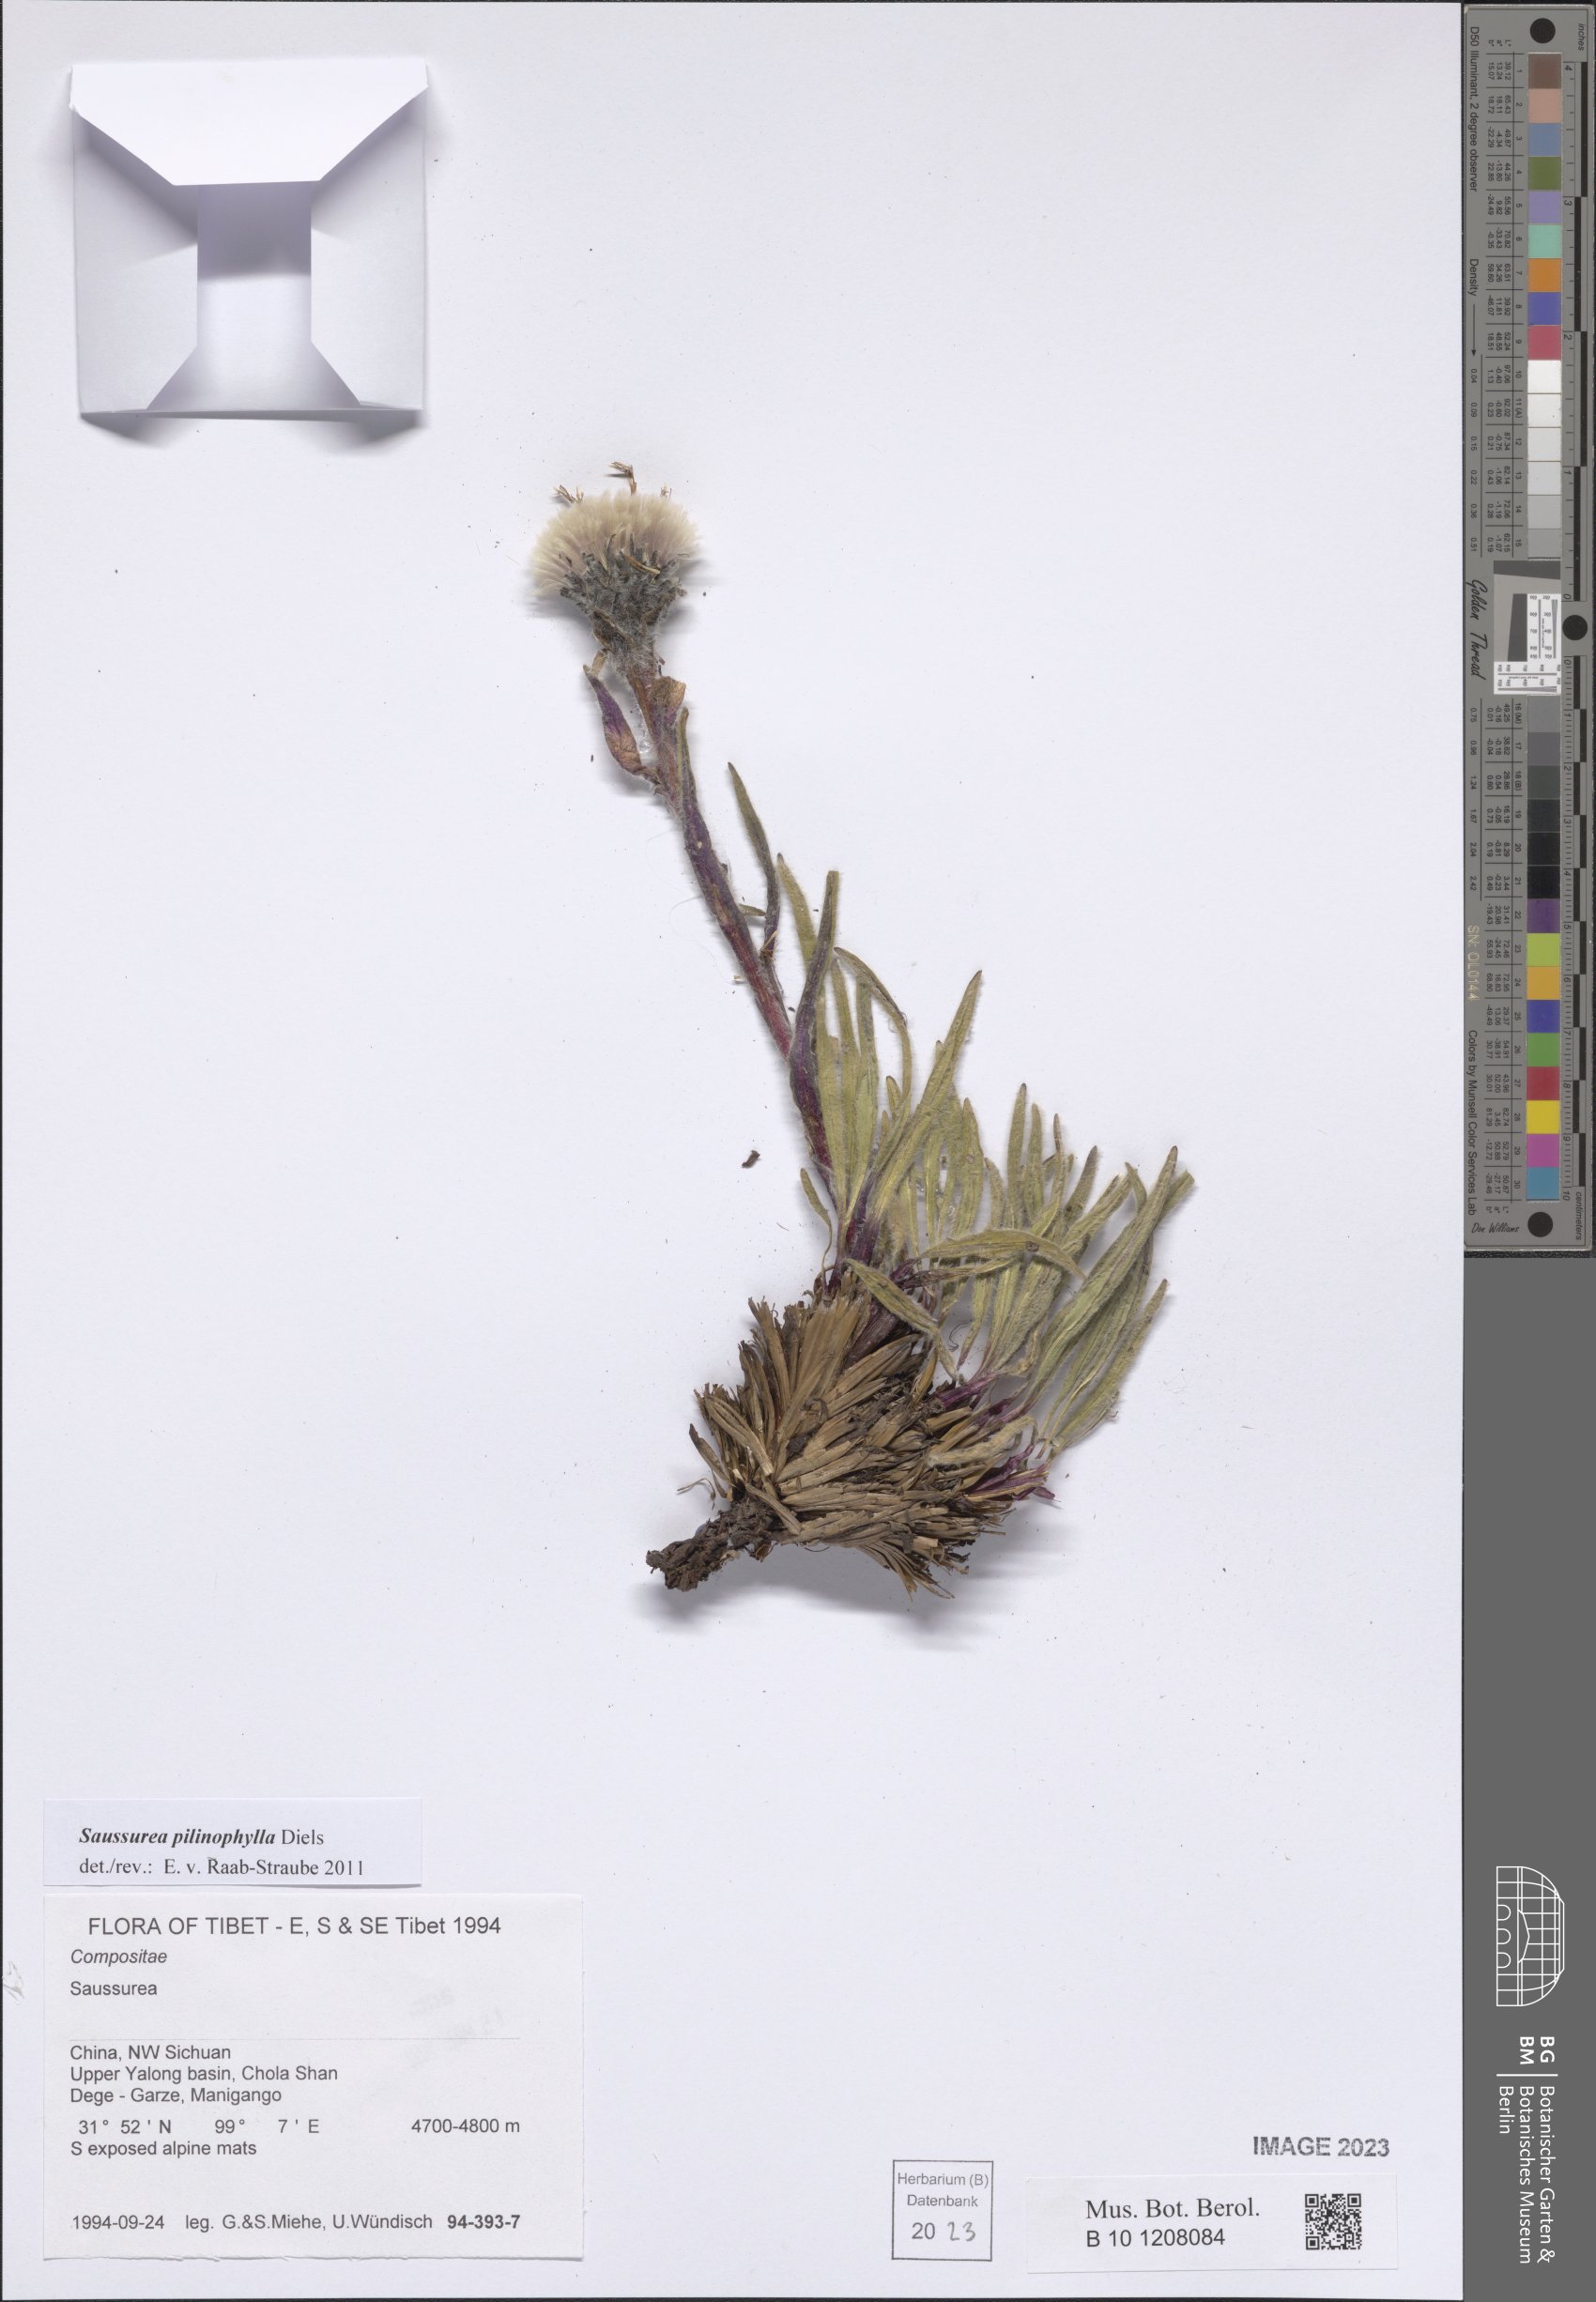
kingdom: Plantae
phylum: Tracheophyta
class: Magnoliopsida
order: Asterales
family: Asteraceae
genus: Saussurea
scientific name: Saussurea pilinophylla
